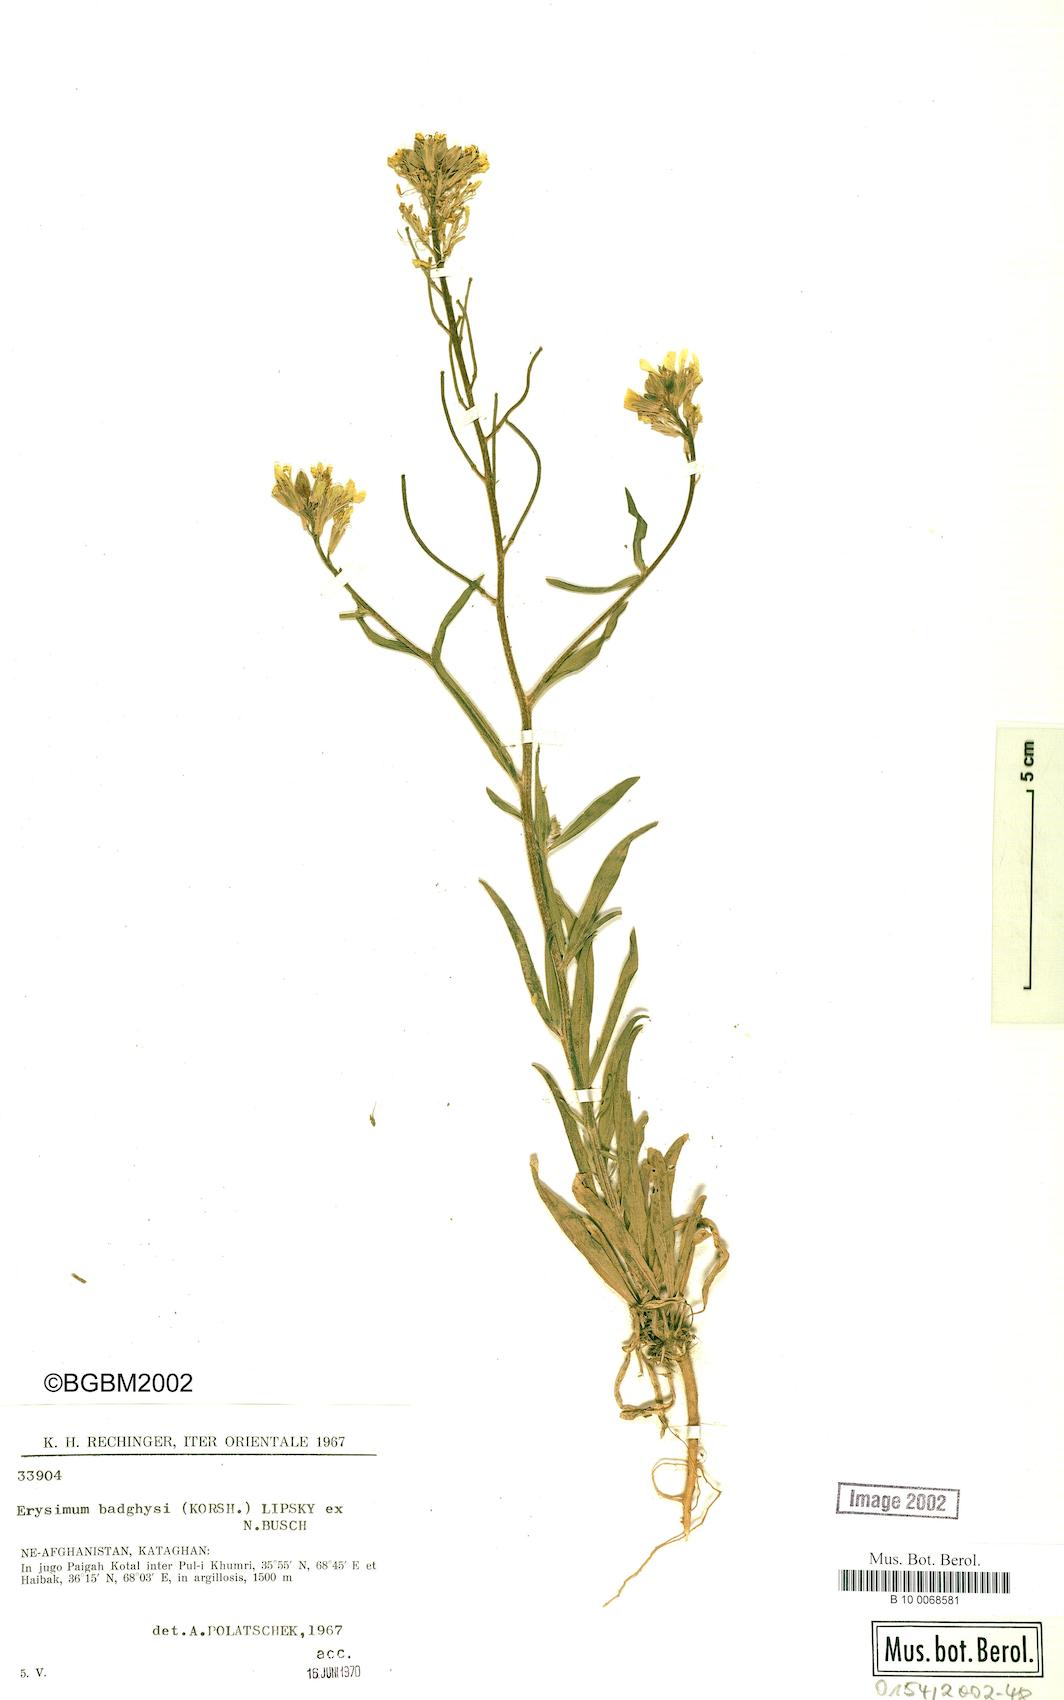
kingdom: Plantae
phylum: Tracheophyta
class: Magnoliopsida
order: Brassicales
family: Brassicaceae
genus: Erysimum
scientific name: Erysimum badghysi
